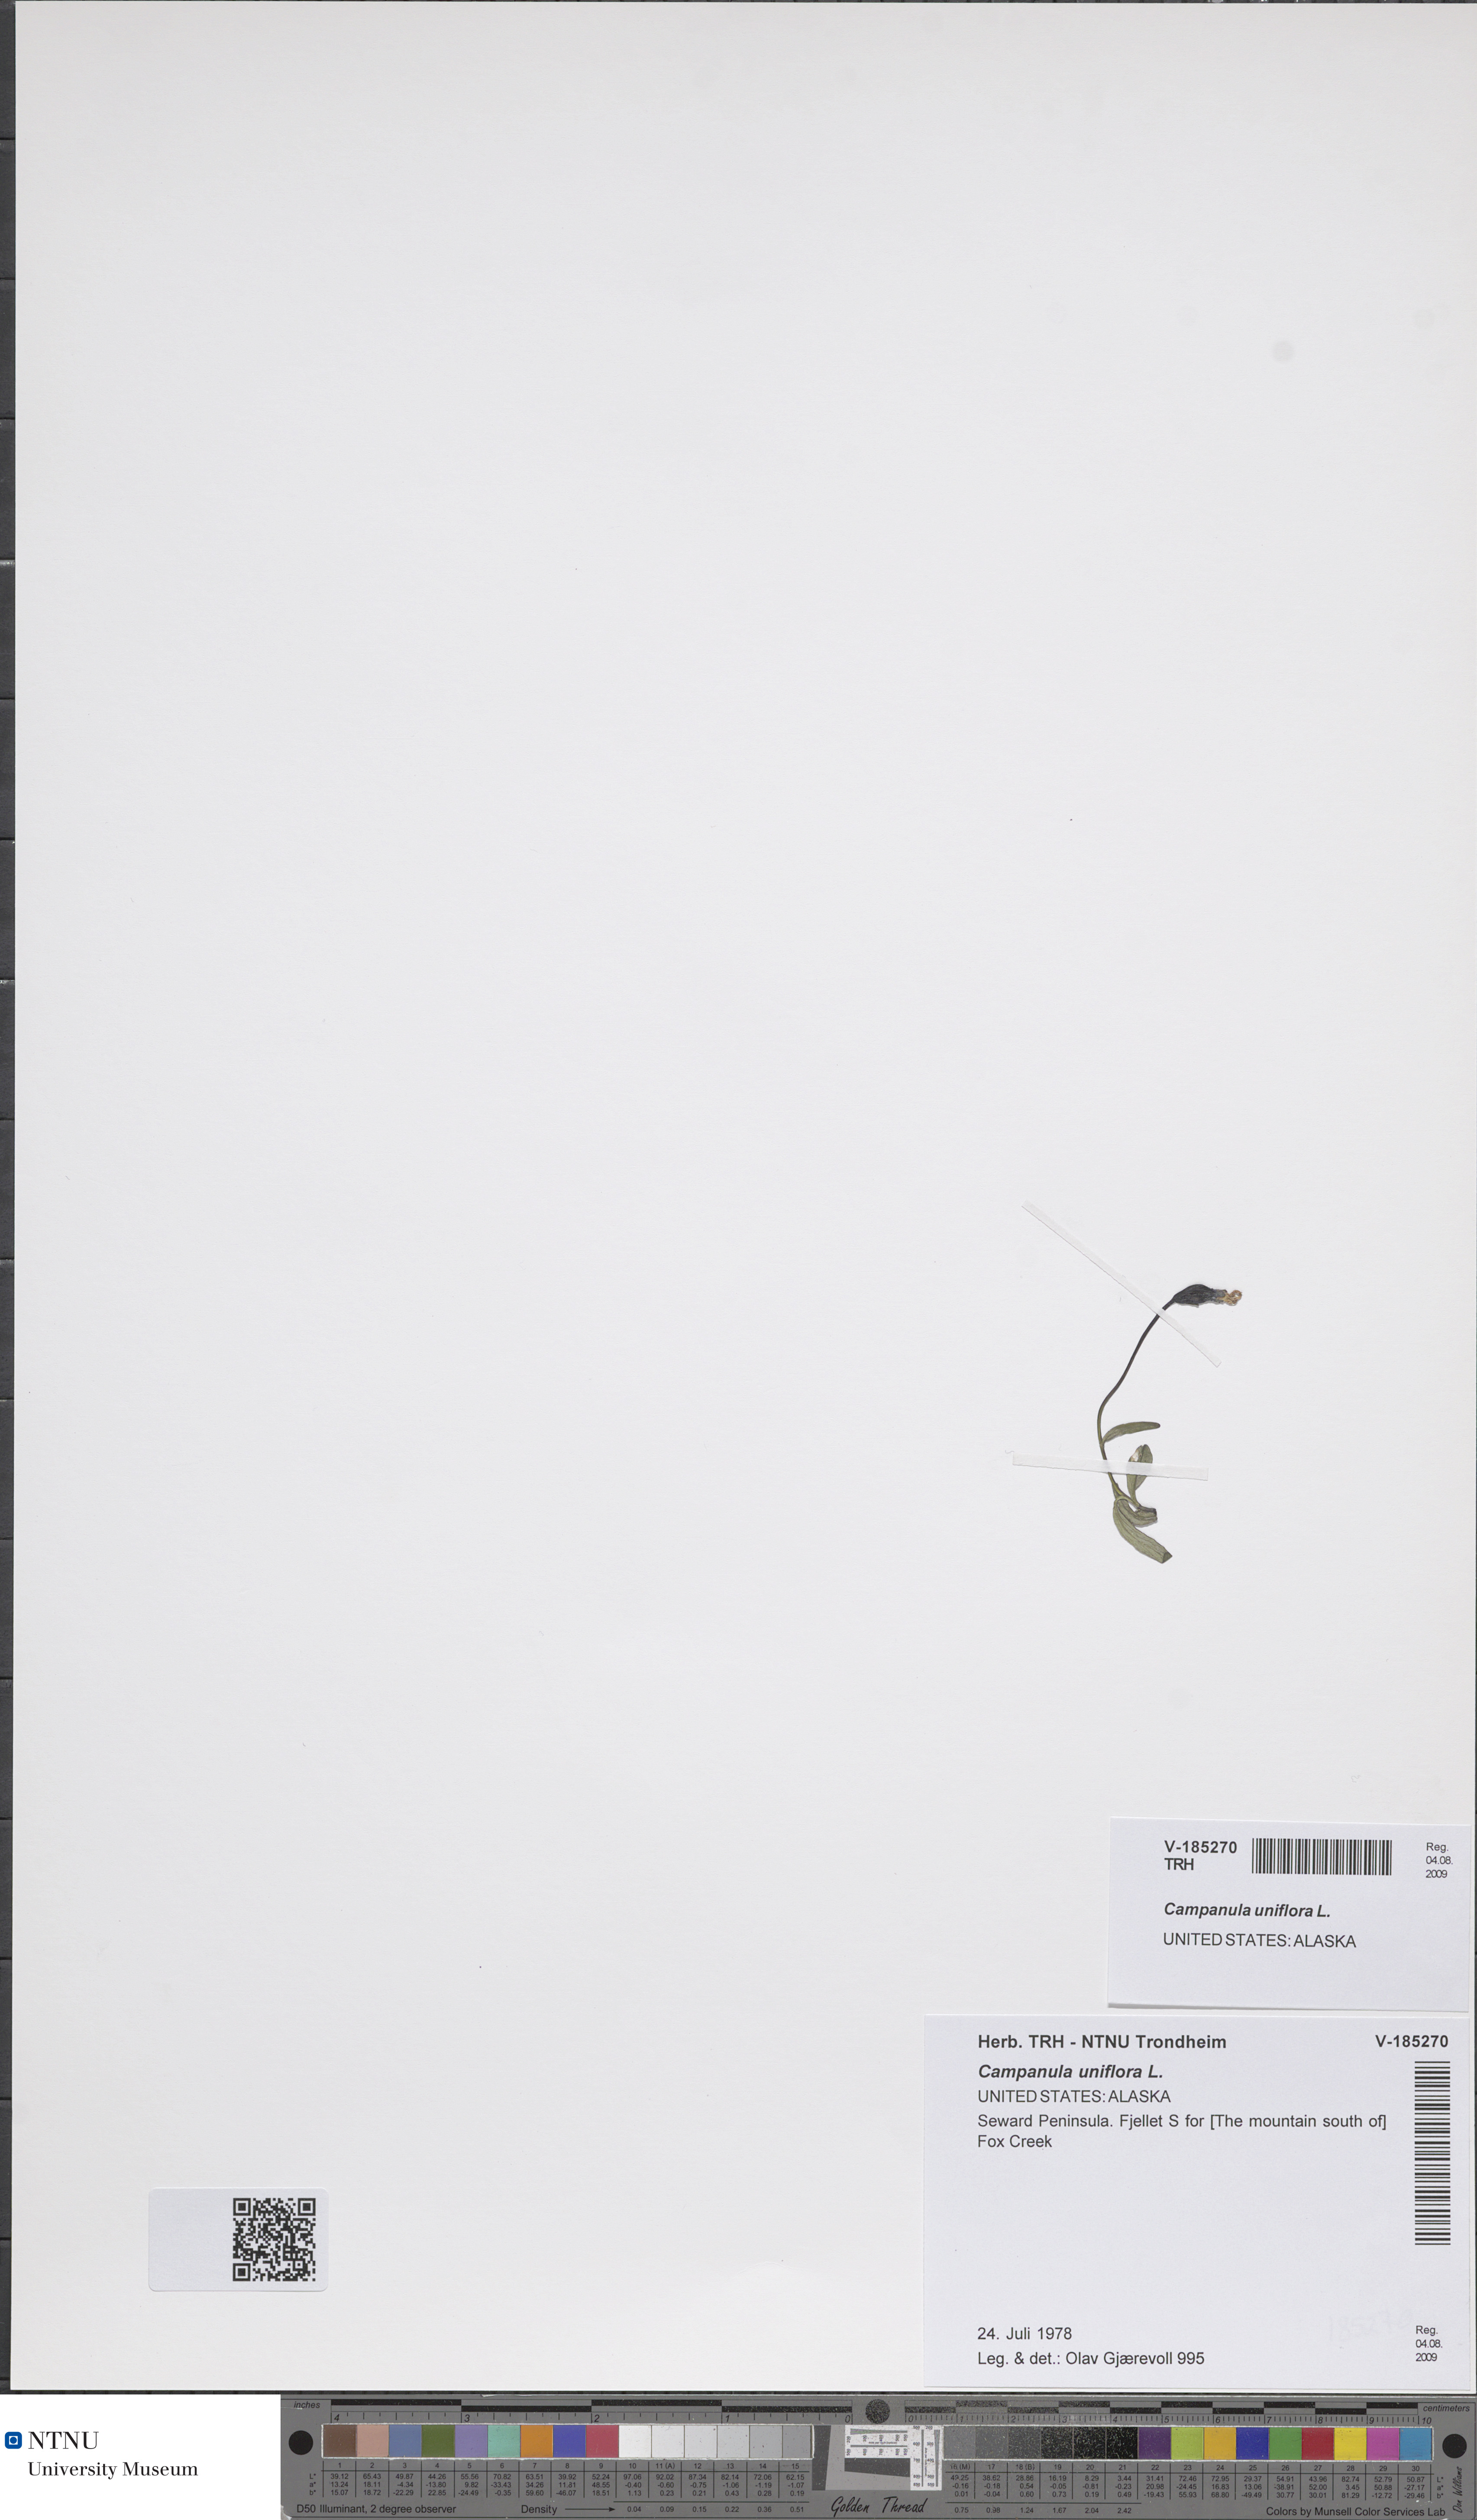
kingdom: Plantae
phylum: Tracheophyta
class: Magnoliopsida
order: Asterales
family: Campanulaceae
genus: Melanocalyx
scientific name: Melanocalyx uniflora
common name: Alpine harebell
